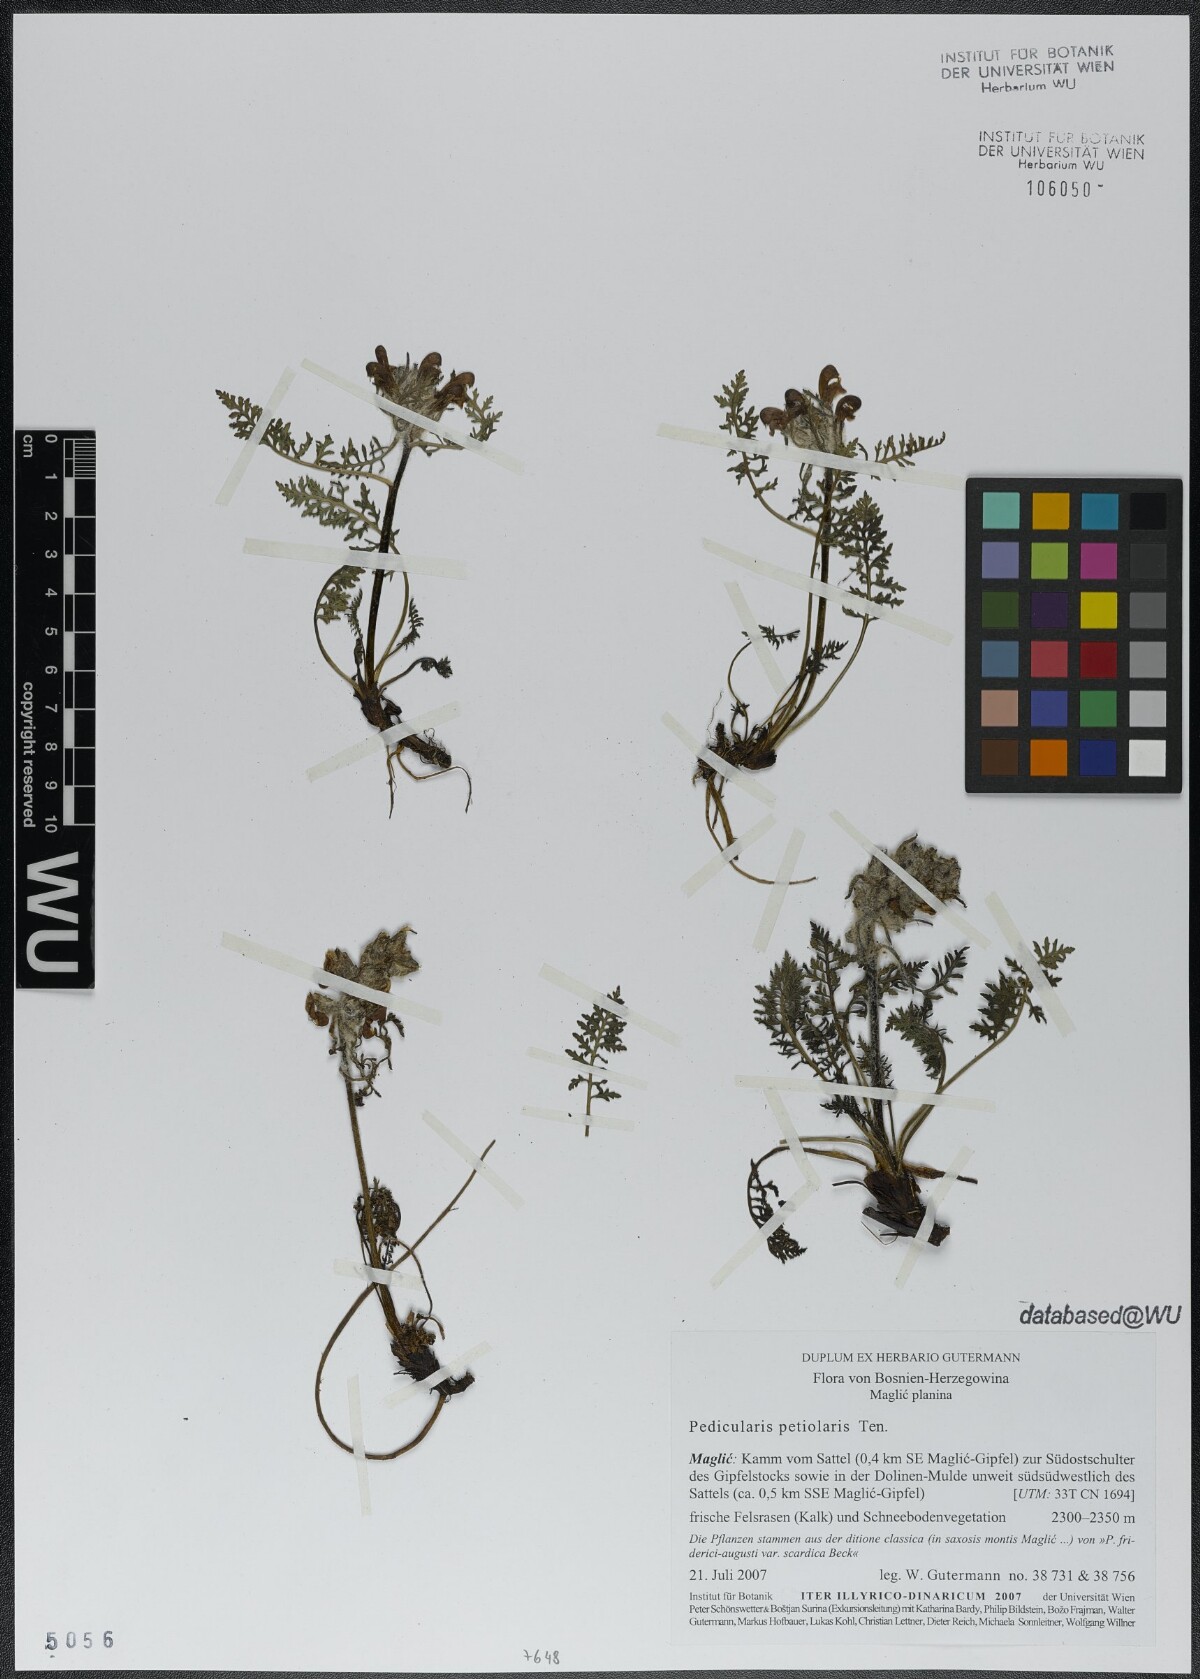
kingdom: Plantae
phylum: Tracheophyta
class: Magnoliopsida
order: Lamiales
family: Orobanchaceae
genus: Pedicularis
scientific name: Pedicularis petiolaris
